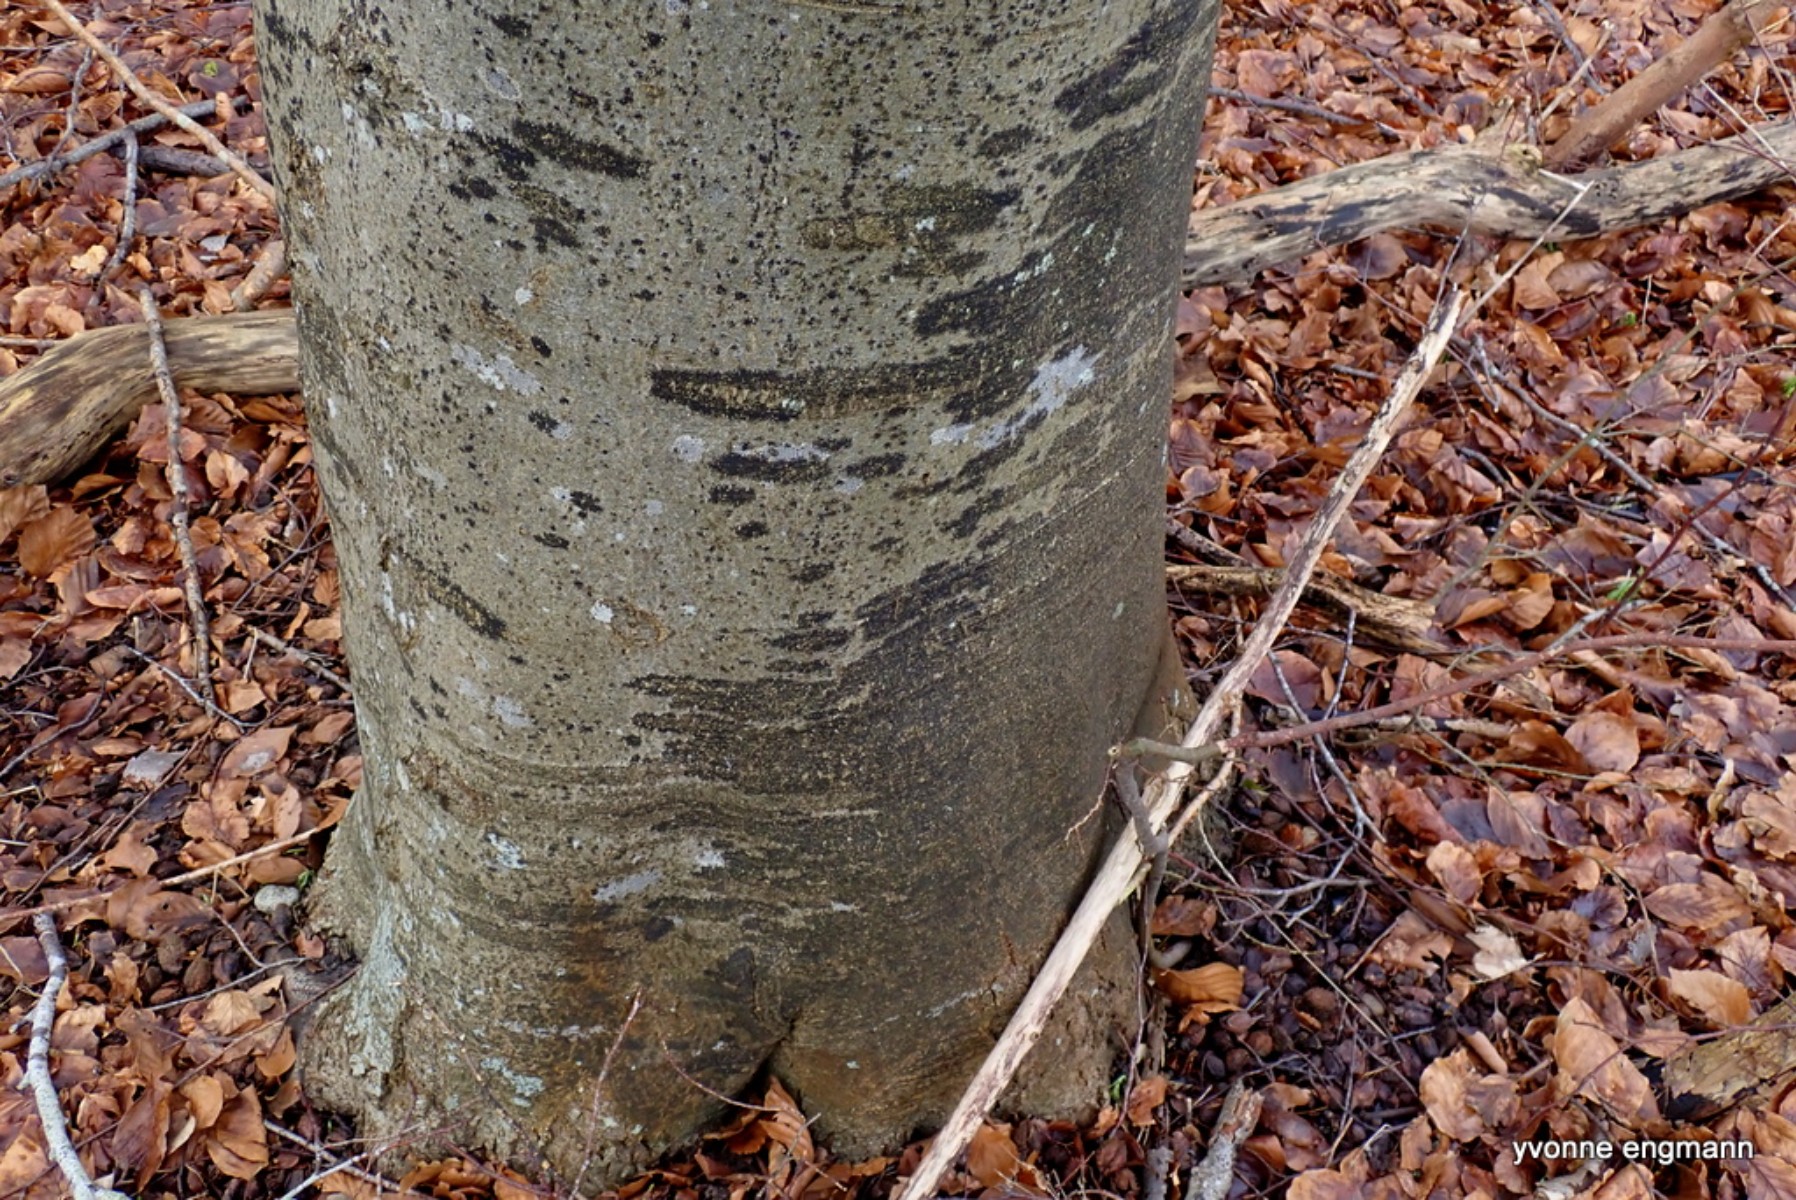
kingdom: Fungi
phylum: Ascomycota
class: Leotiomycetes
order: Rhytismatales
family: Ascodichaenaceae
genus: Ascodichaena
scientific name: Ascodichaena rugosa
